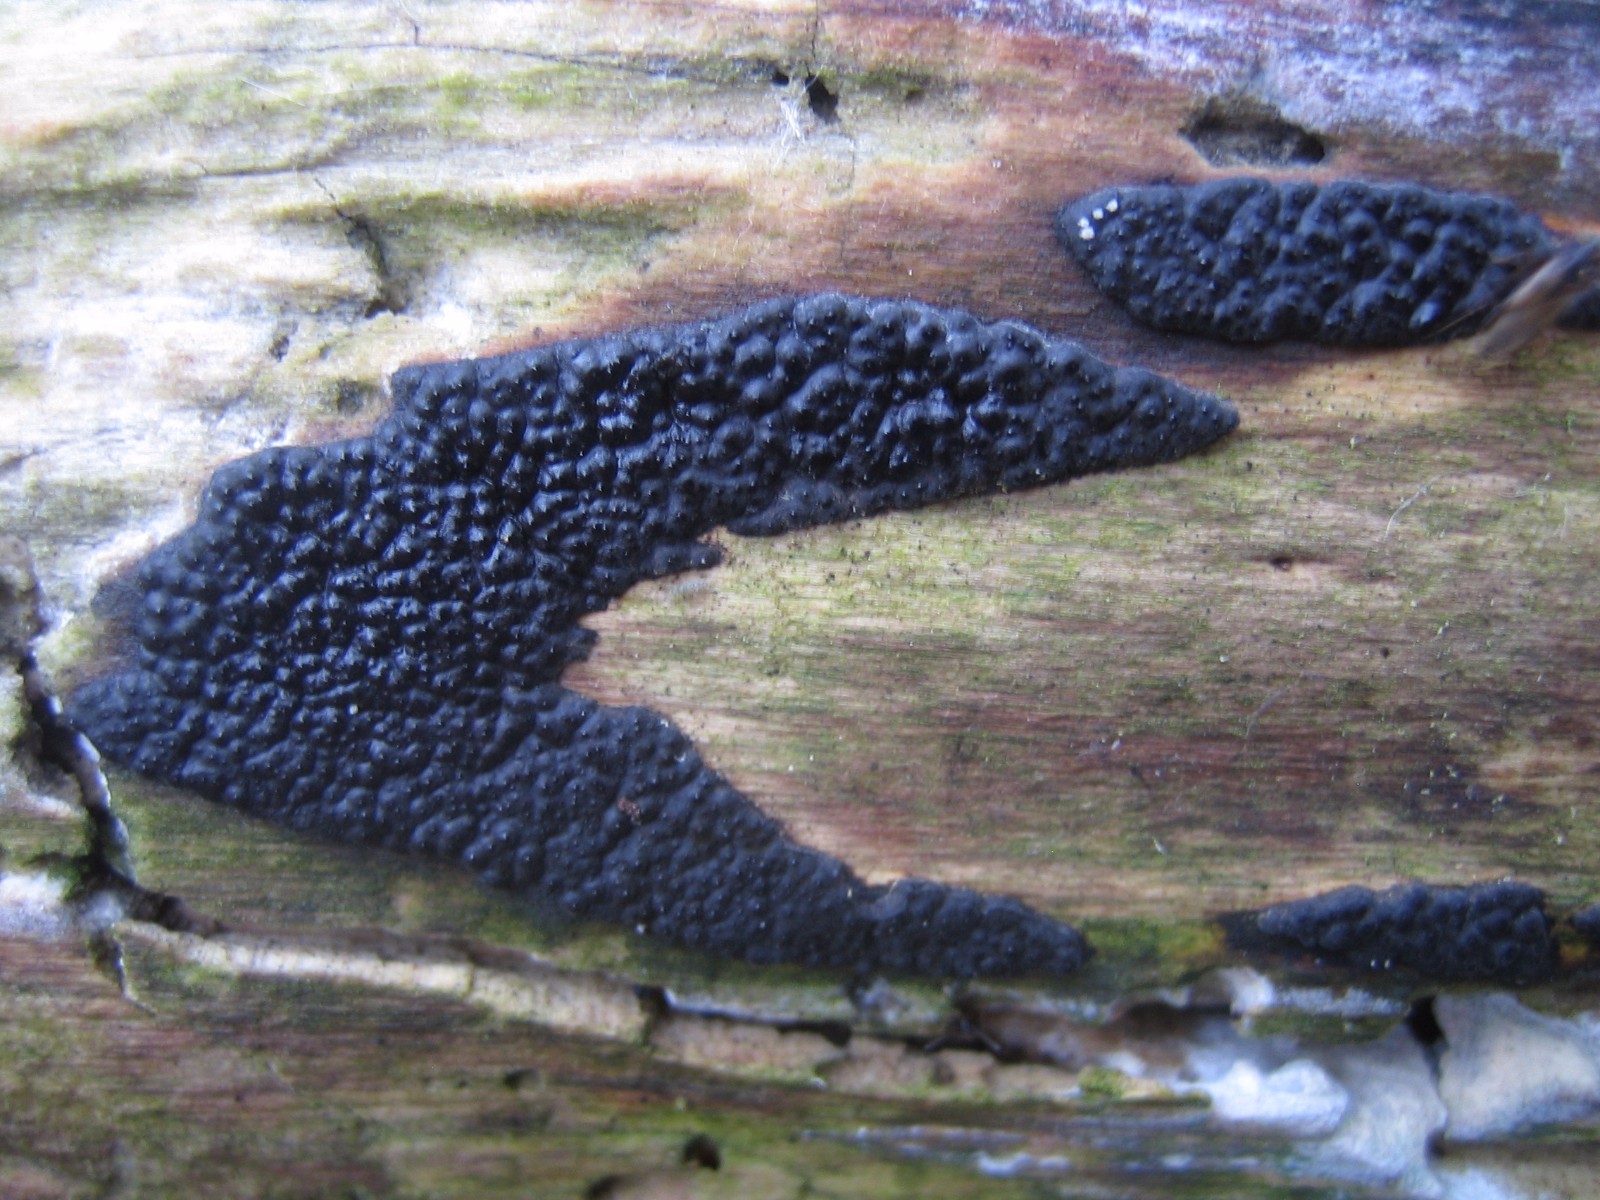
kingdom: Fungi
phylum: Ascomycota
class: Sordariomycetes
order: Xylariales
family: Xylariaceae
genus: Nemania
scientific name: Nemania
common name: kuldyne
